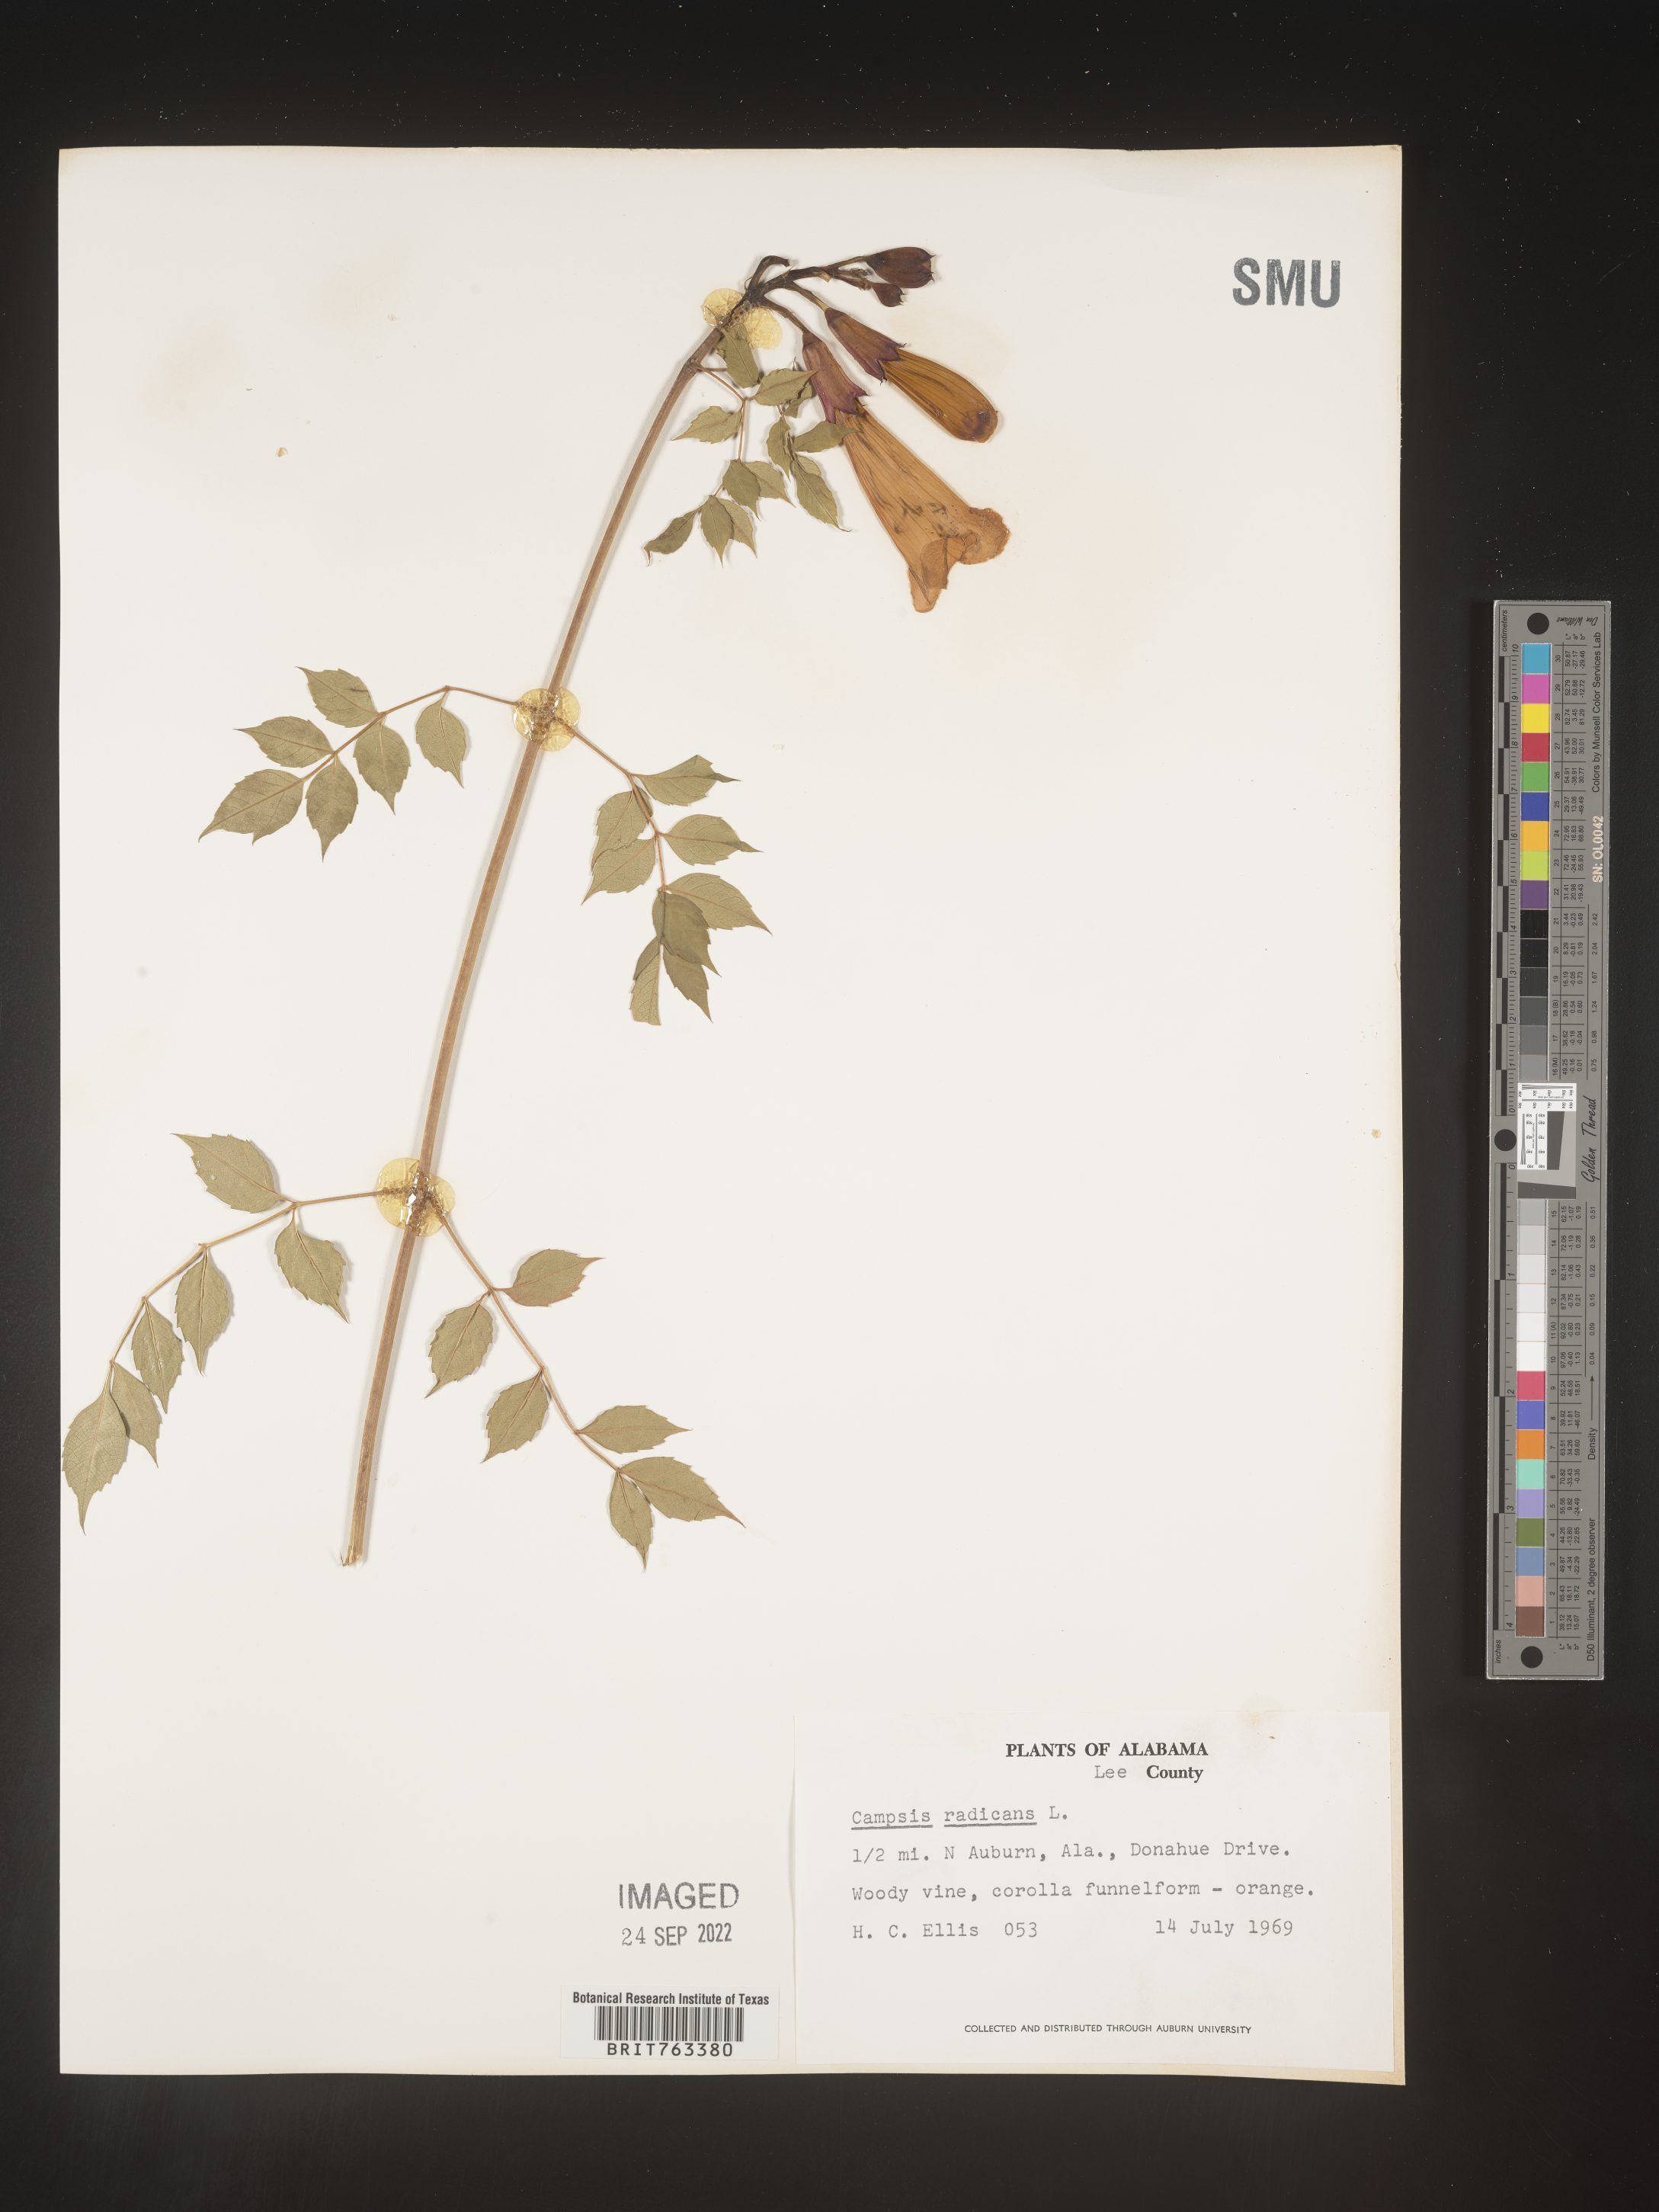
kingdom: Plantae
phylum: Tracheophyta
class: Magnoliopsida
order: Lamiales
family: Bignoniaceae
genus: Campsis
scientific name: Campsis radicans
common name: Trumpet-creeper
